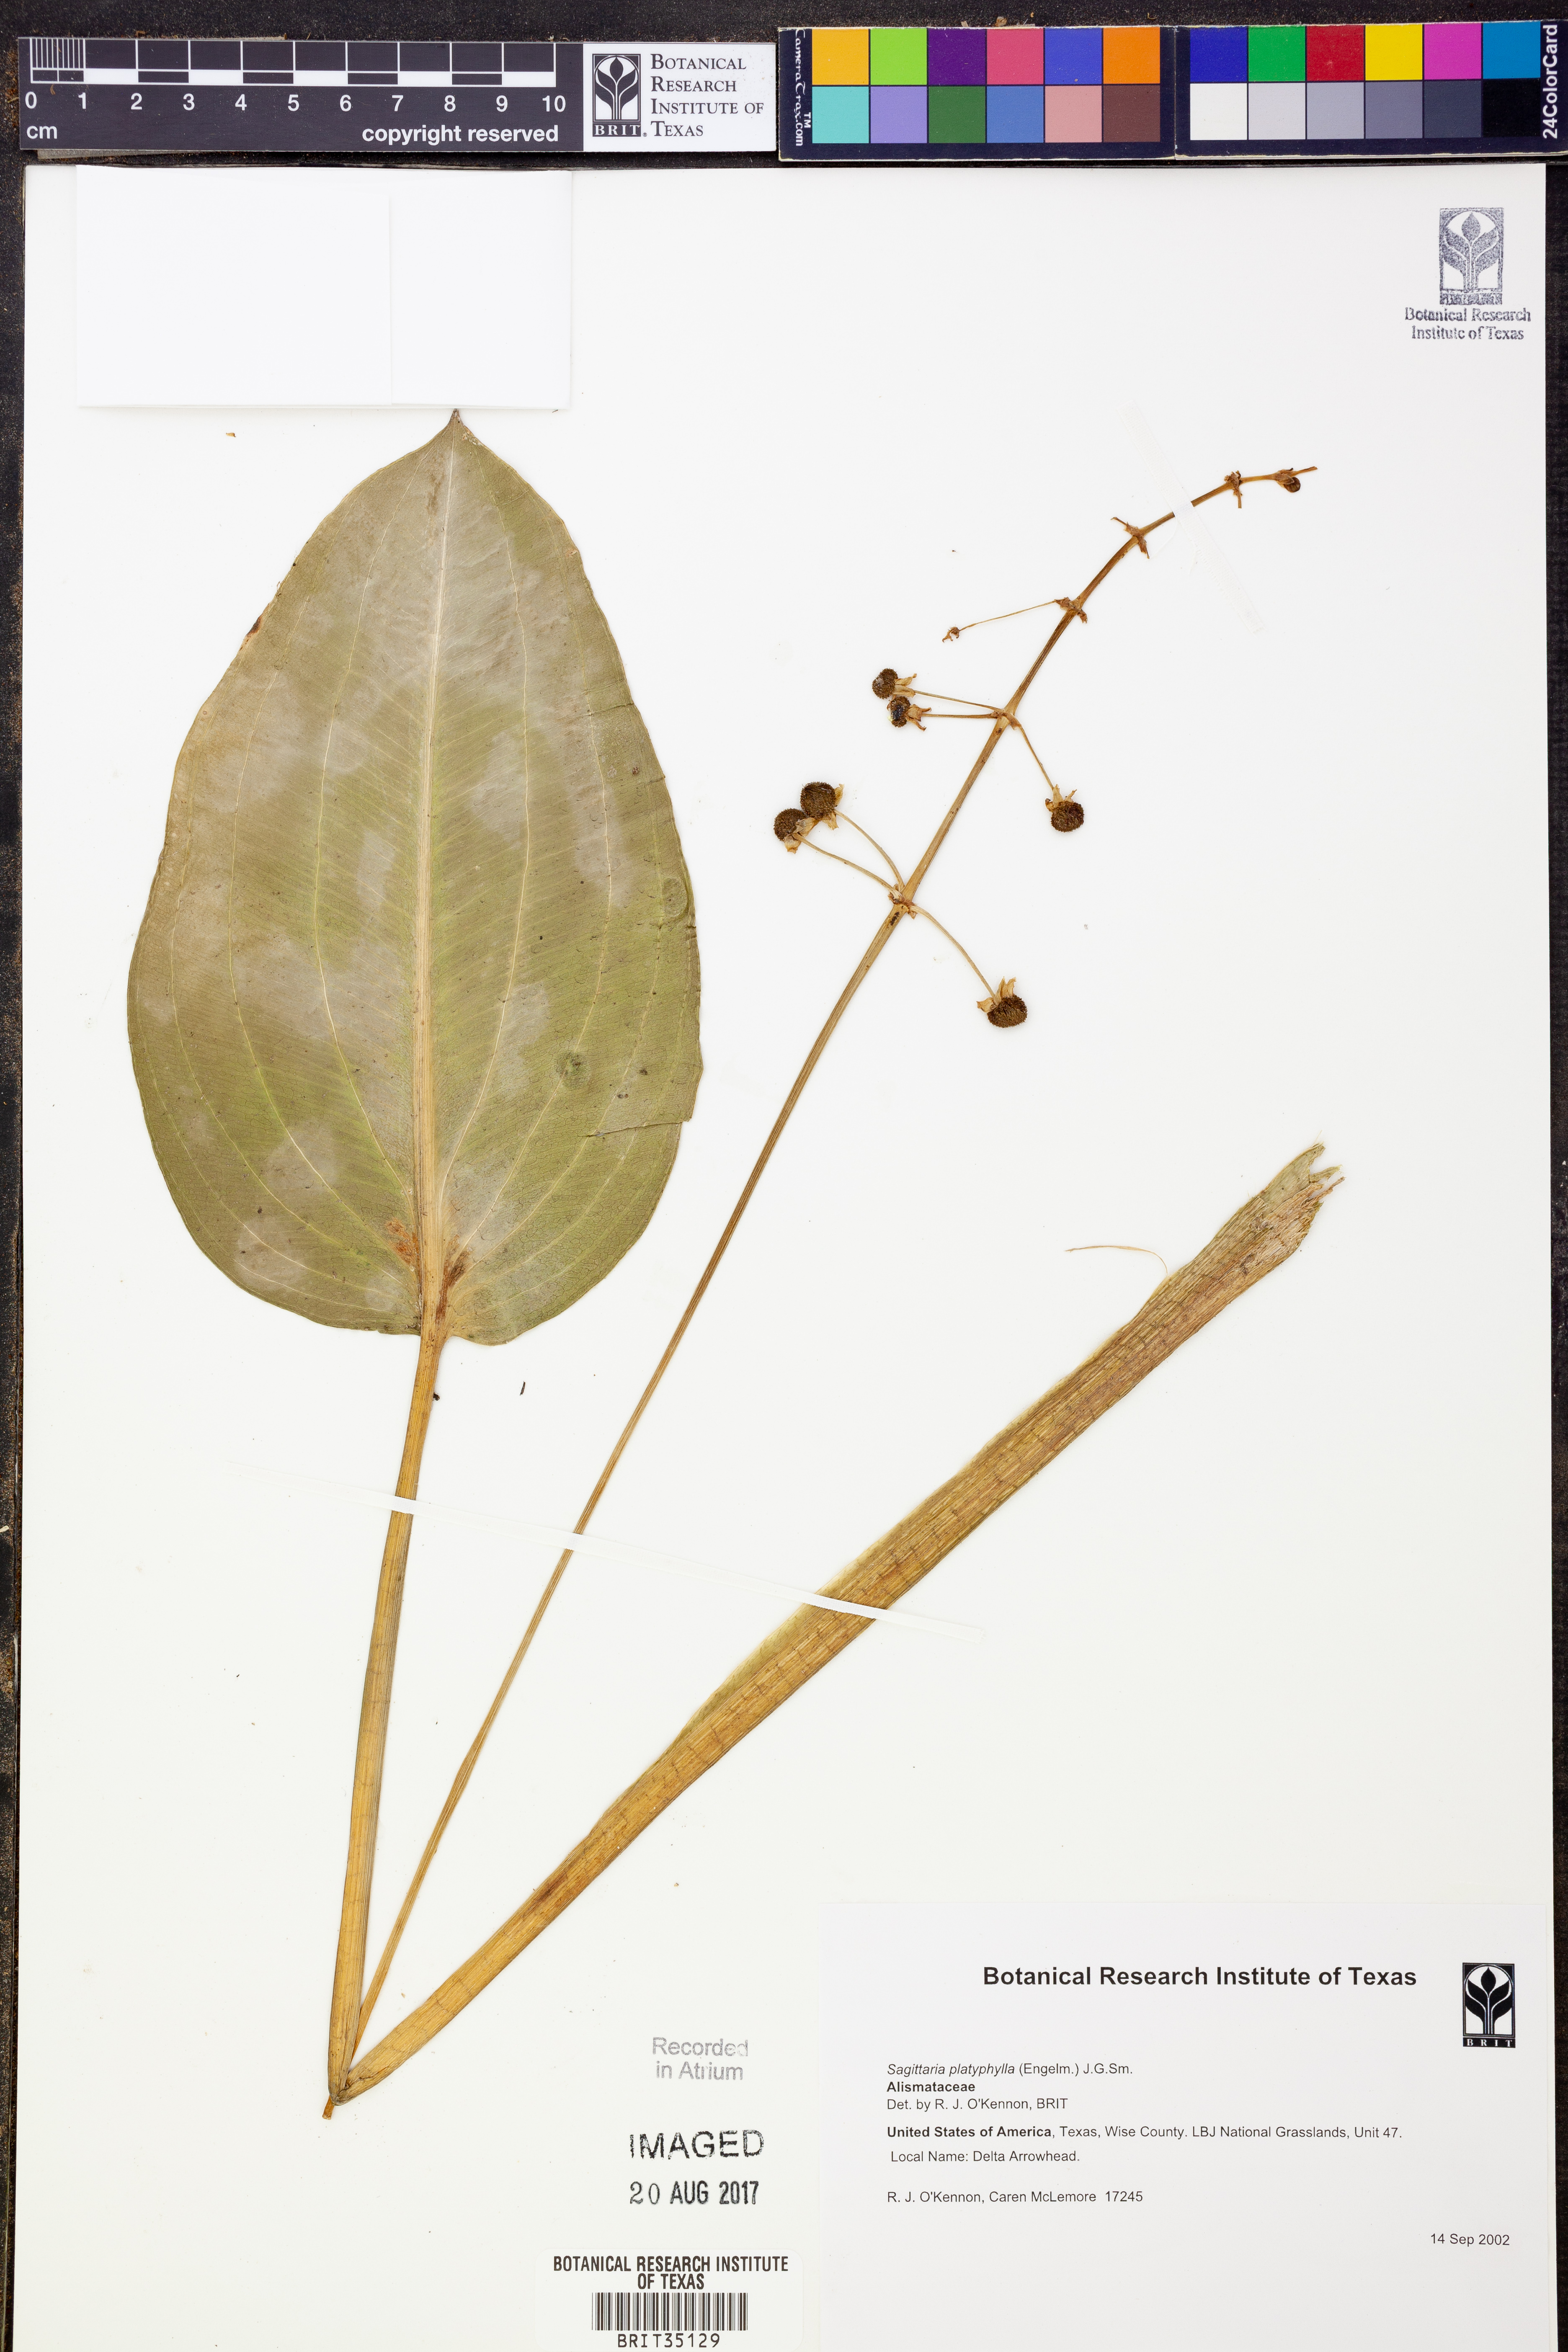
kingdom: Plantae
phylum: Tracheophyta
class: Liliopsida
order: Alismatales
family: Alismataceae
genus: Sagittaria
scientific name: Sagittaria platyphylla
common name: Broad-leaf arrowhead
